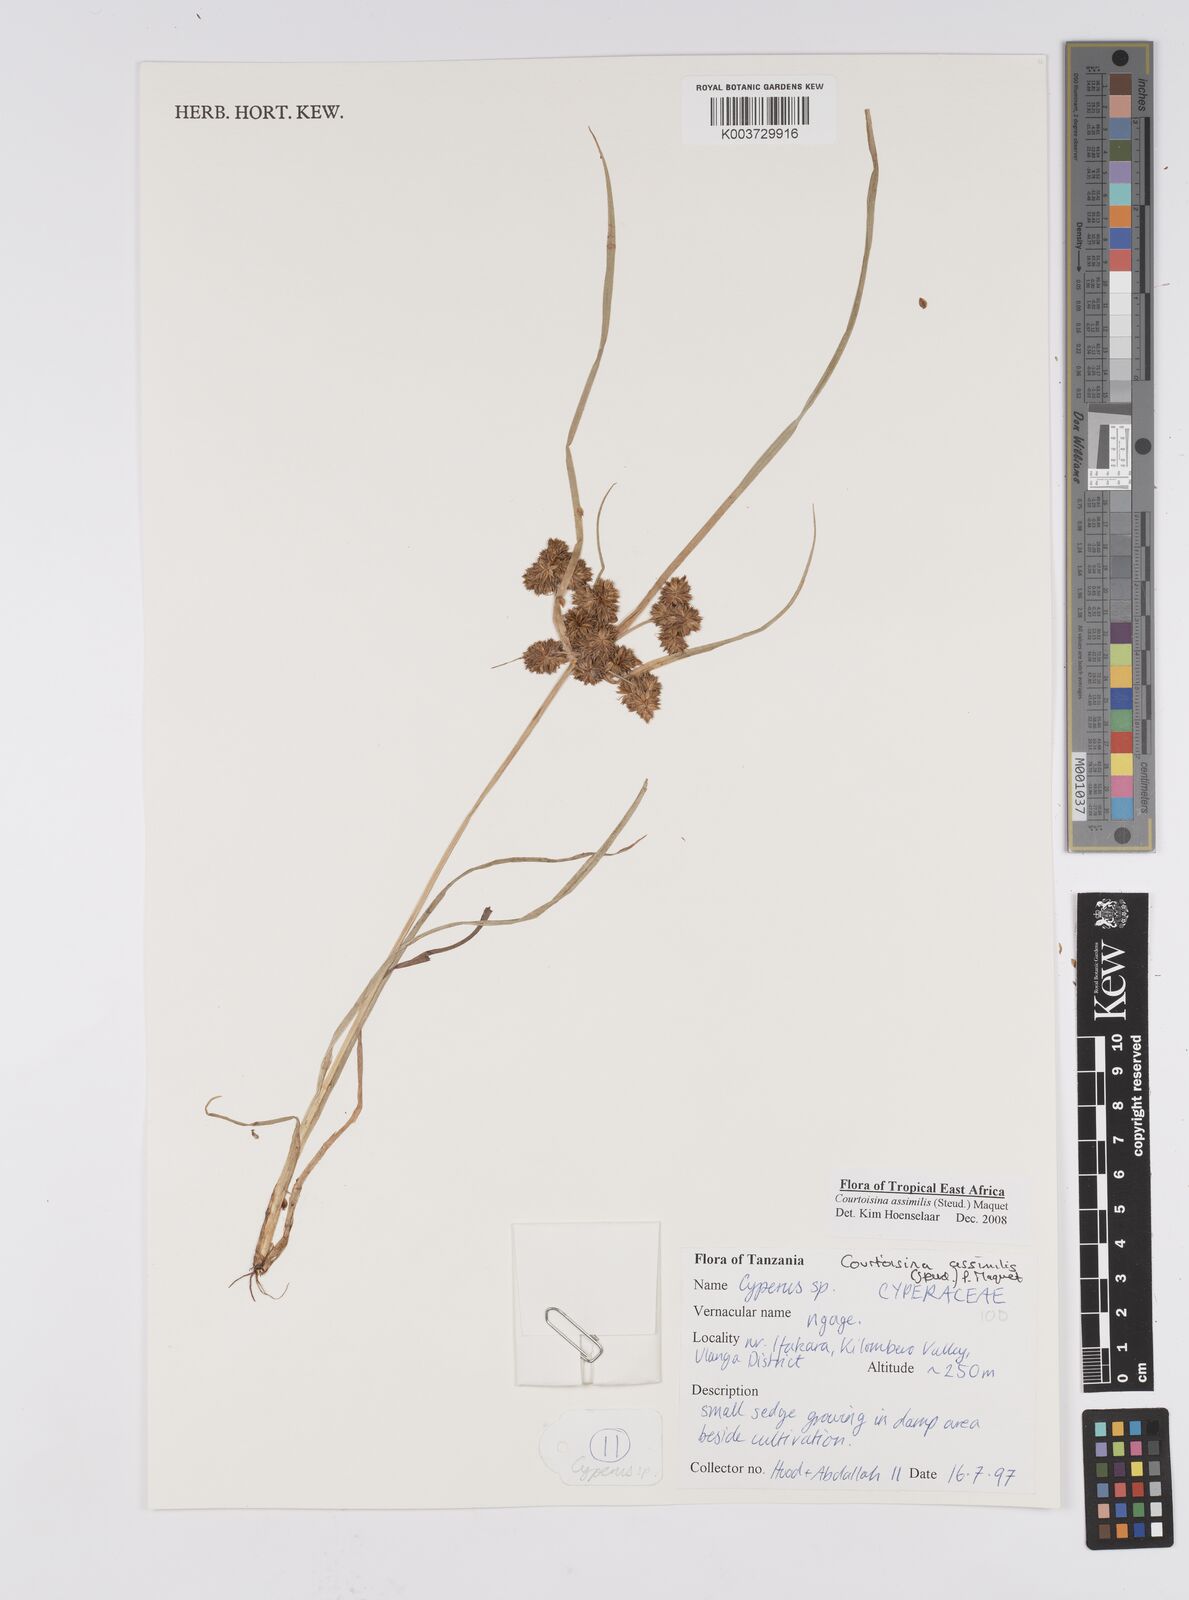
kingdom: Plantae
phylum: Tracheophyta
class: Liliopsida
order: Poales
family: Cyperaceae
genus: Cyperus
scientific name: Cyperus assimilis
